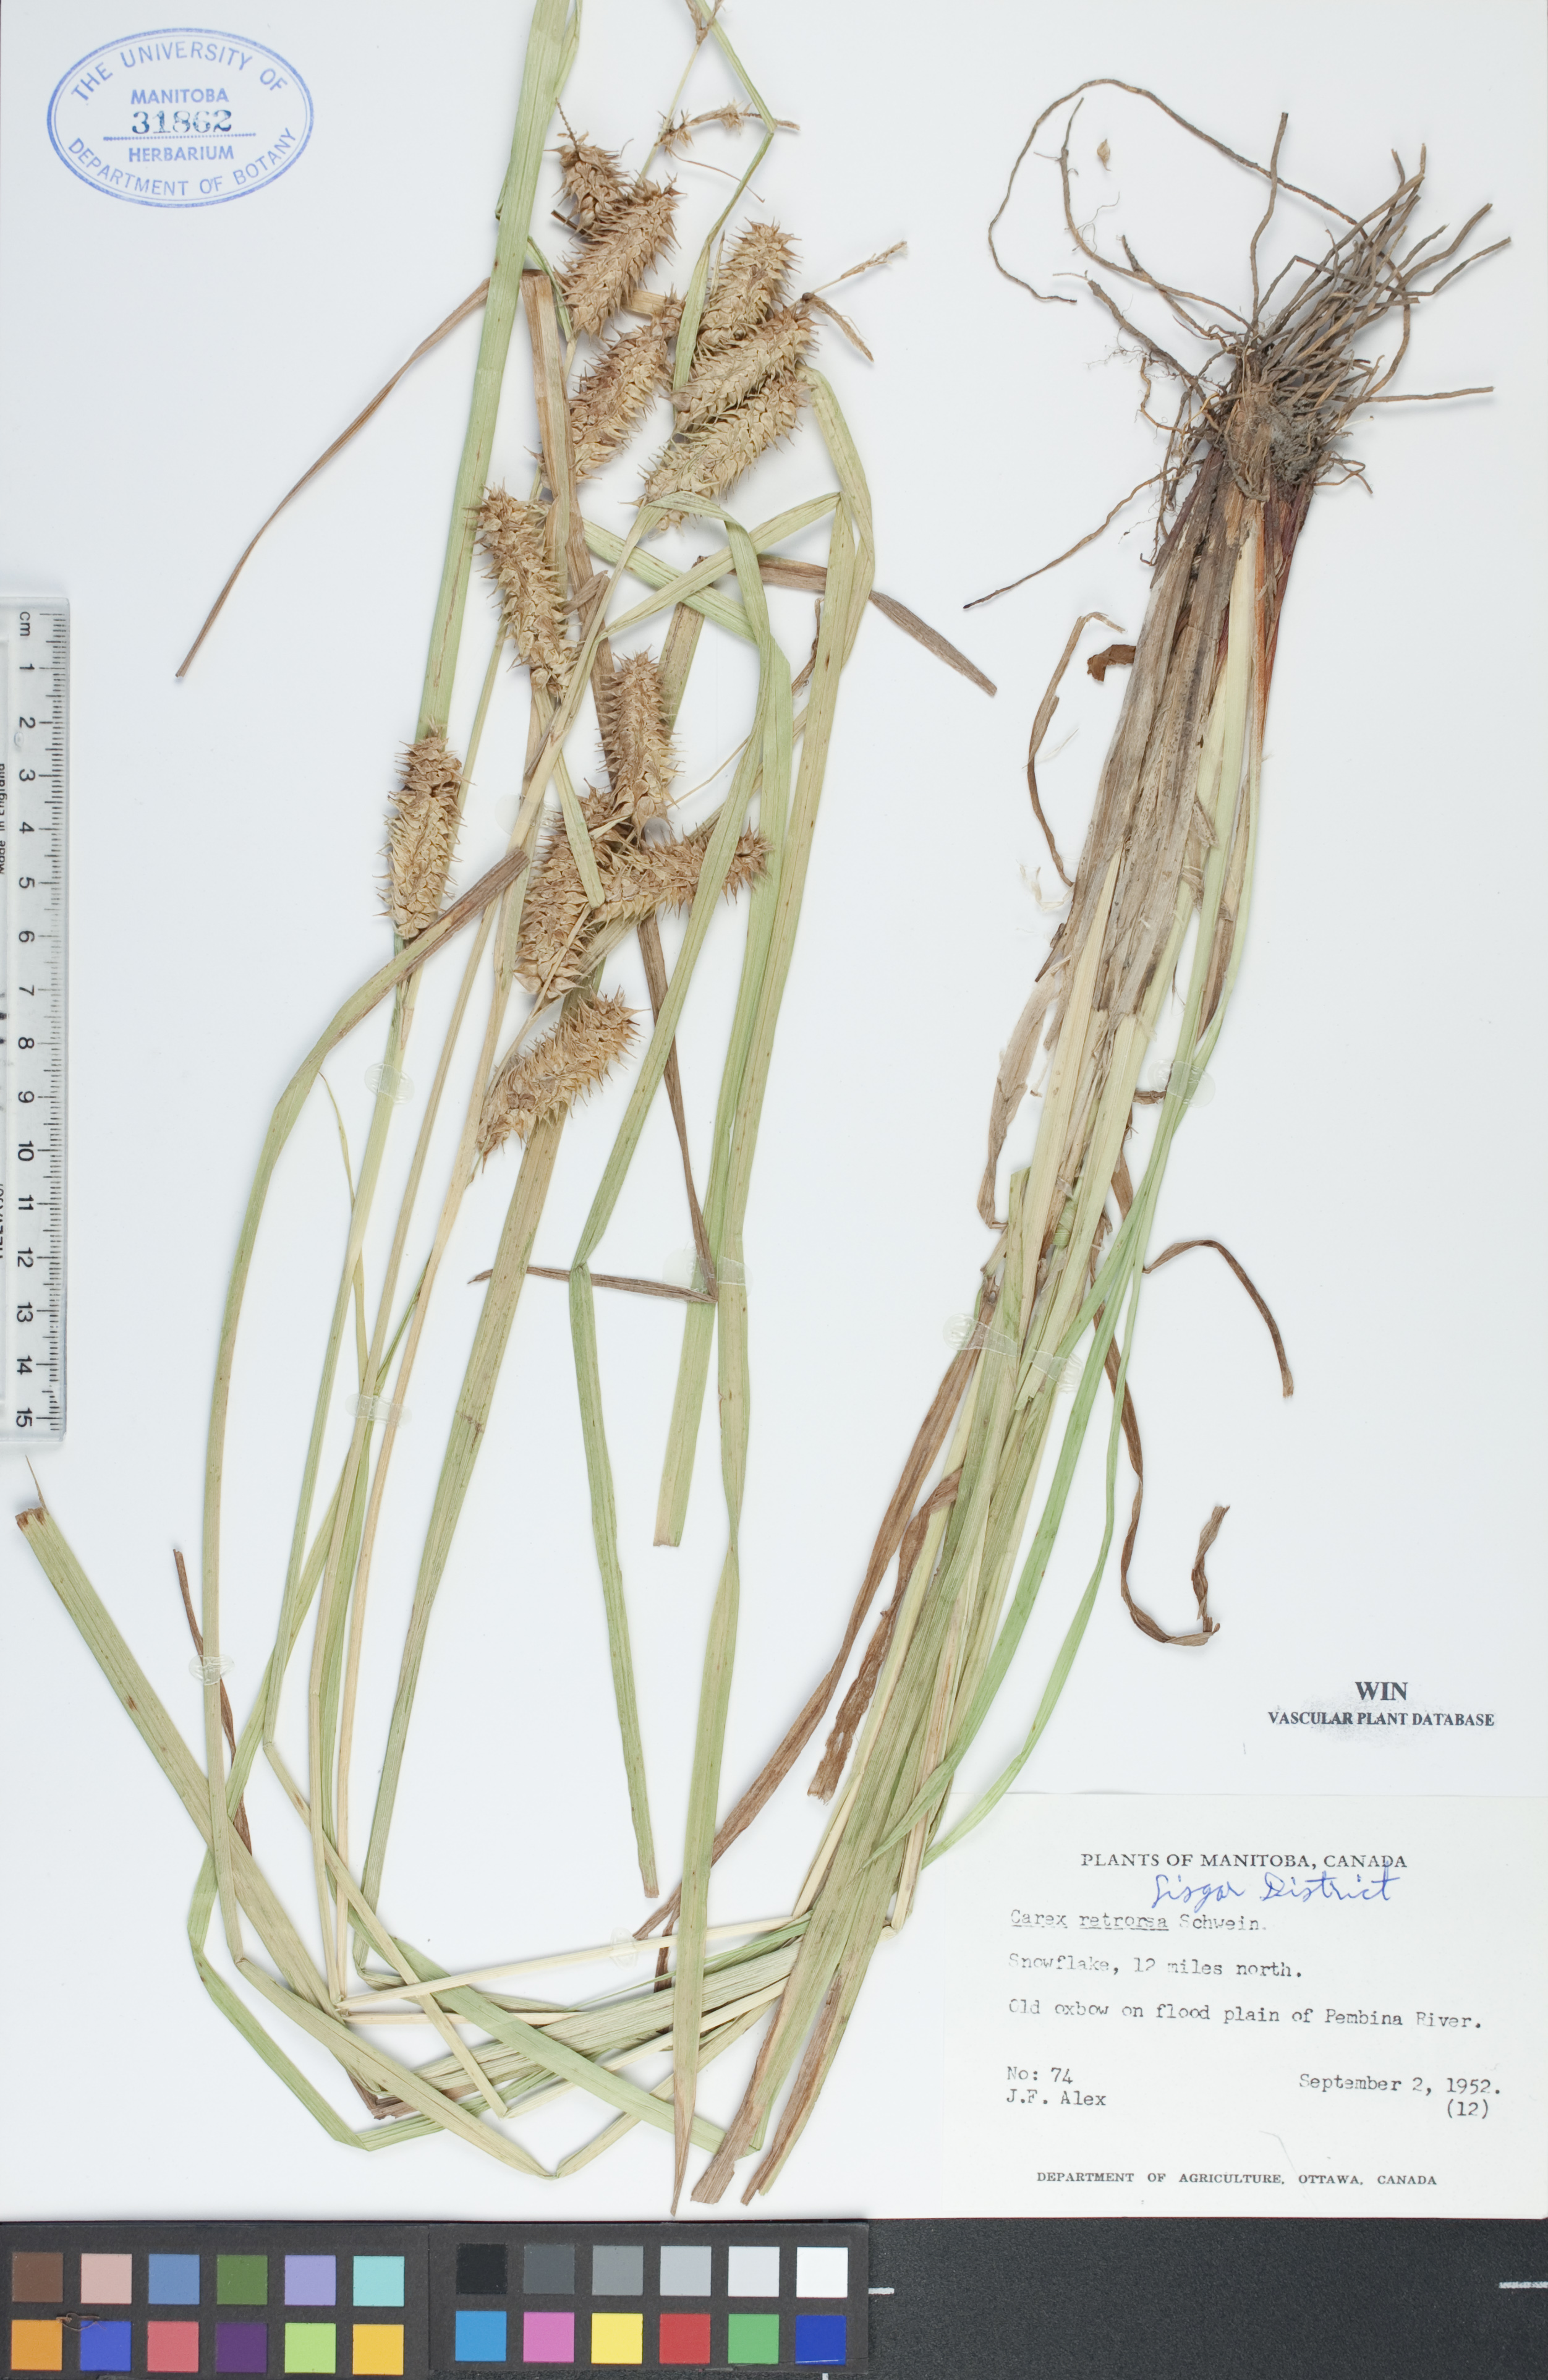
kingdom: Plantae
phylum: Tracheophyta
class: Liliopsida
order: Poales
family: Cyperaceae
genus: Carex
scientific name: Carex retrorsa
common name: Knot-sheath sedge
